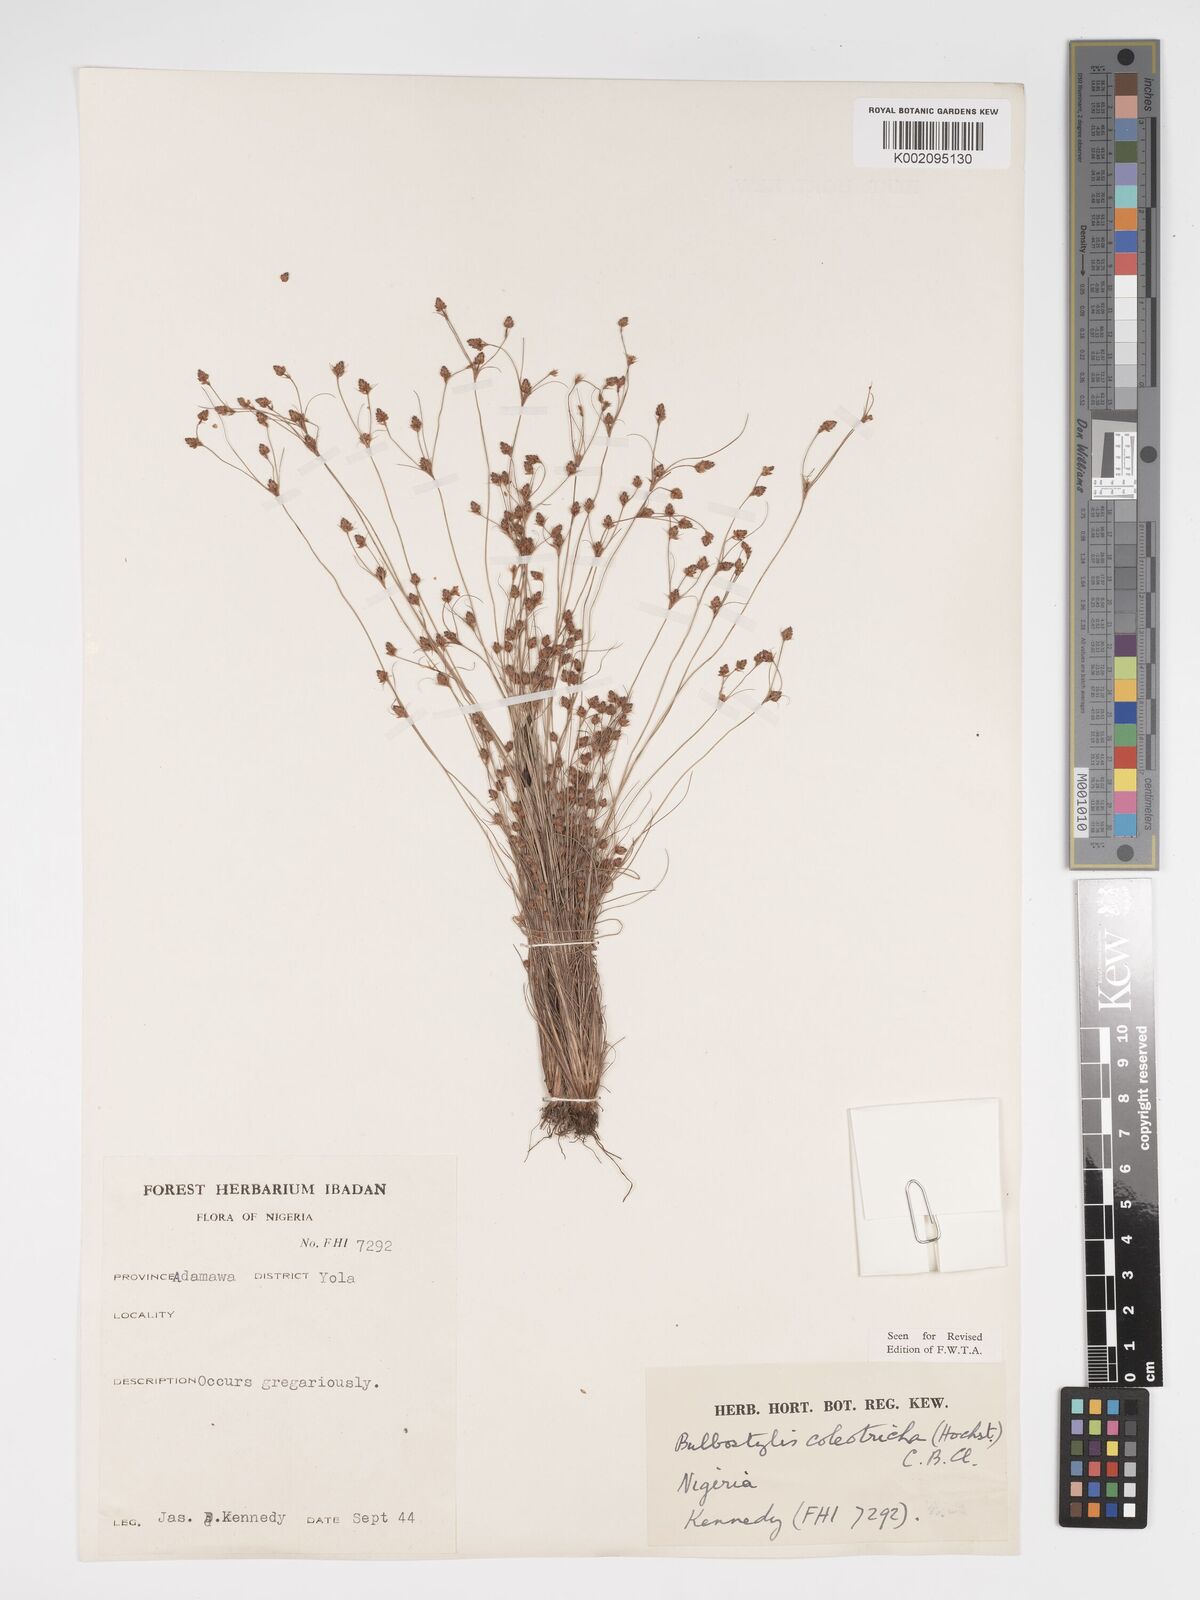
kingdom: Plantae
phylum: Tracheophyta
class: Liliopsida
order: Poales
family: Cyperaceae
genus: Bulbostylis
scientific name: Bulbostylis coleotricha
